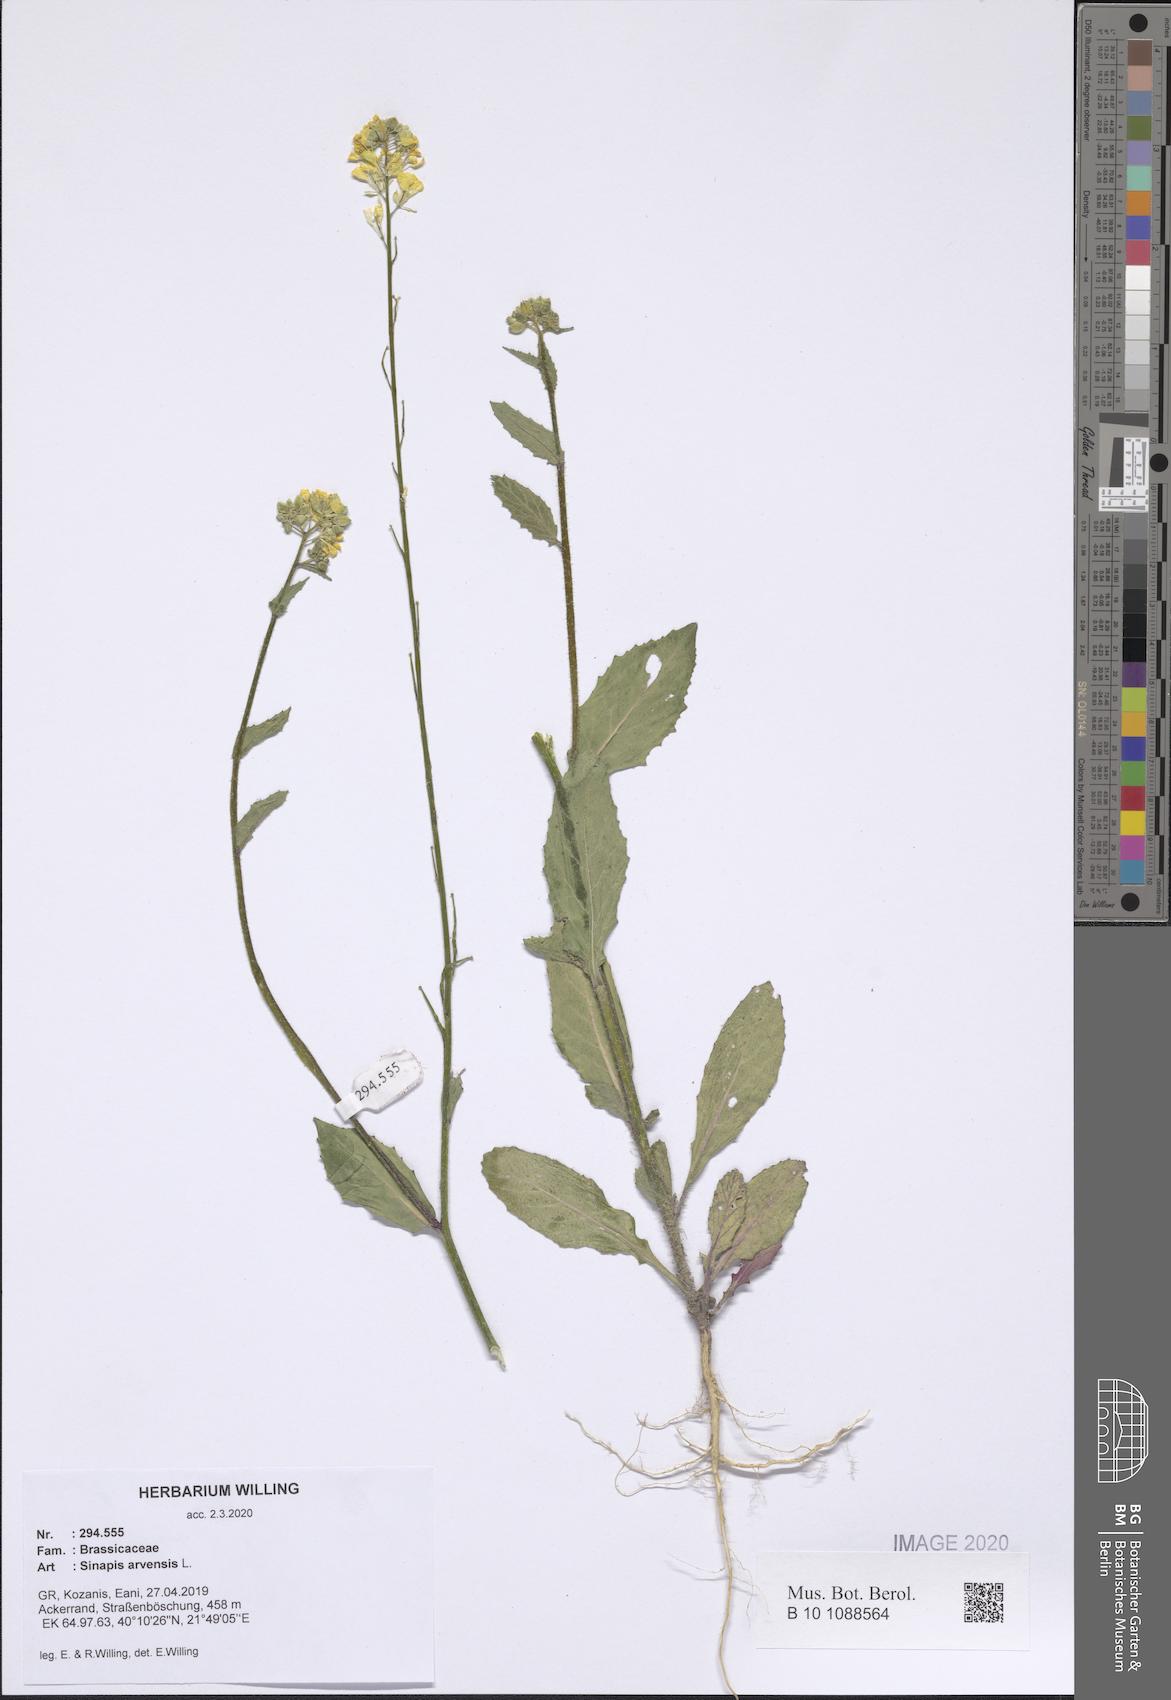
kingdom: Plantae
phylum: Tracheophyta
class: Magnoliopsida
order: Brassicales
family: Brassicaceae
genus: Sinapis
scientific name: Sinapis arvensis
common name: Charlock
